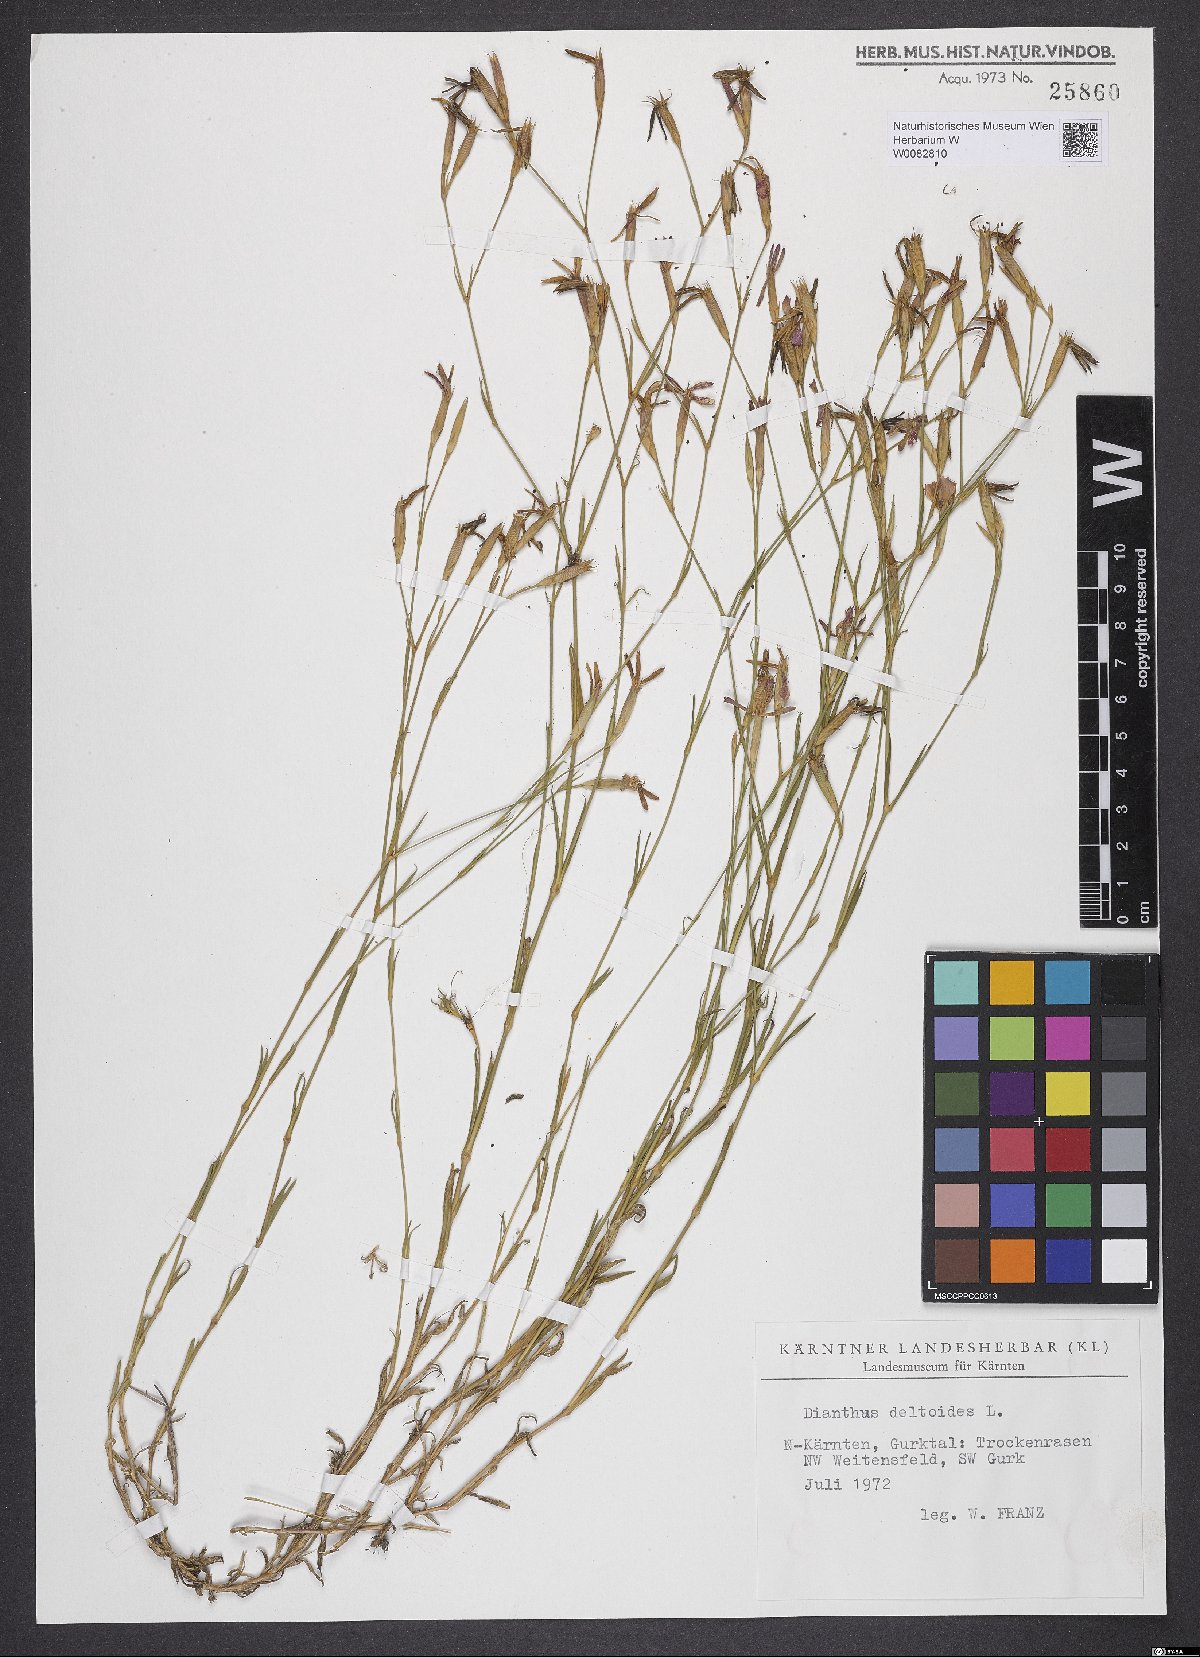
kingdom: Plantae
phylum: Tracheophyta
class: Magnoliopsida
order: Caryophyllales
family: Caryophyllaceae
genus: Dianthus
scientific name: Dianthus deltoides
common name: Maiden pink
